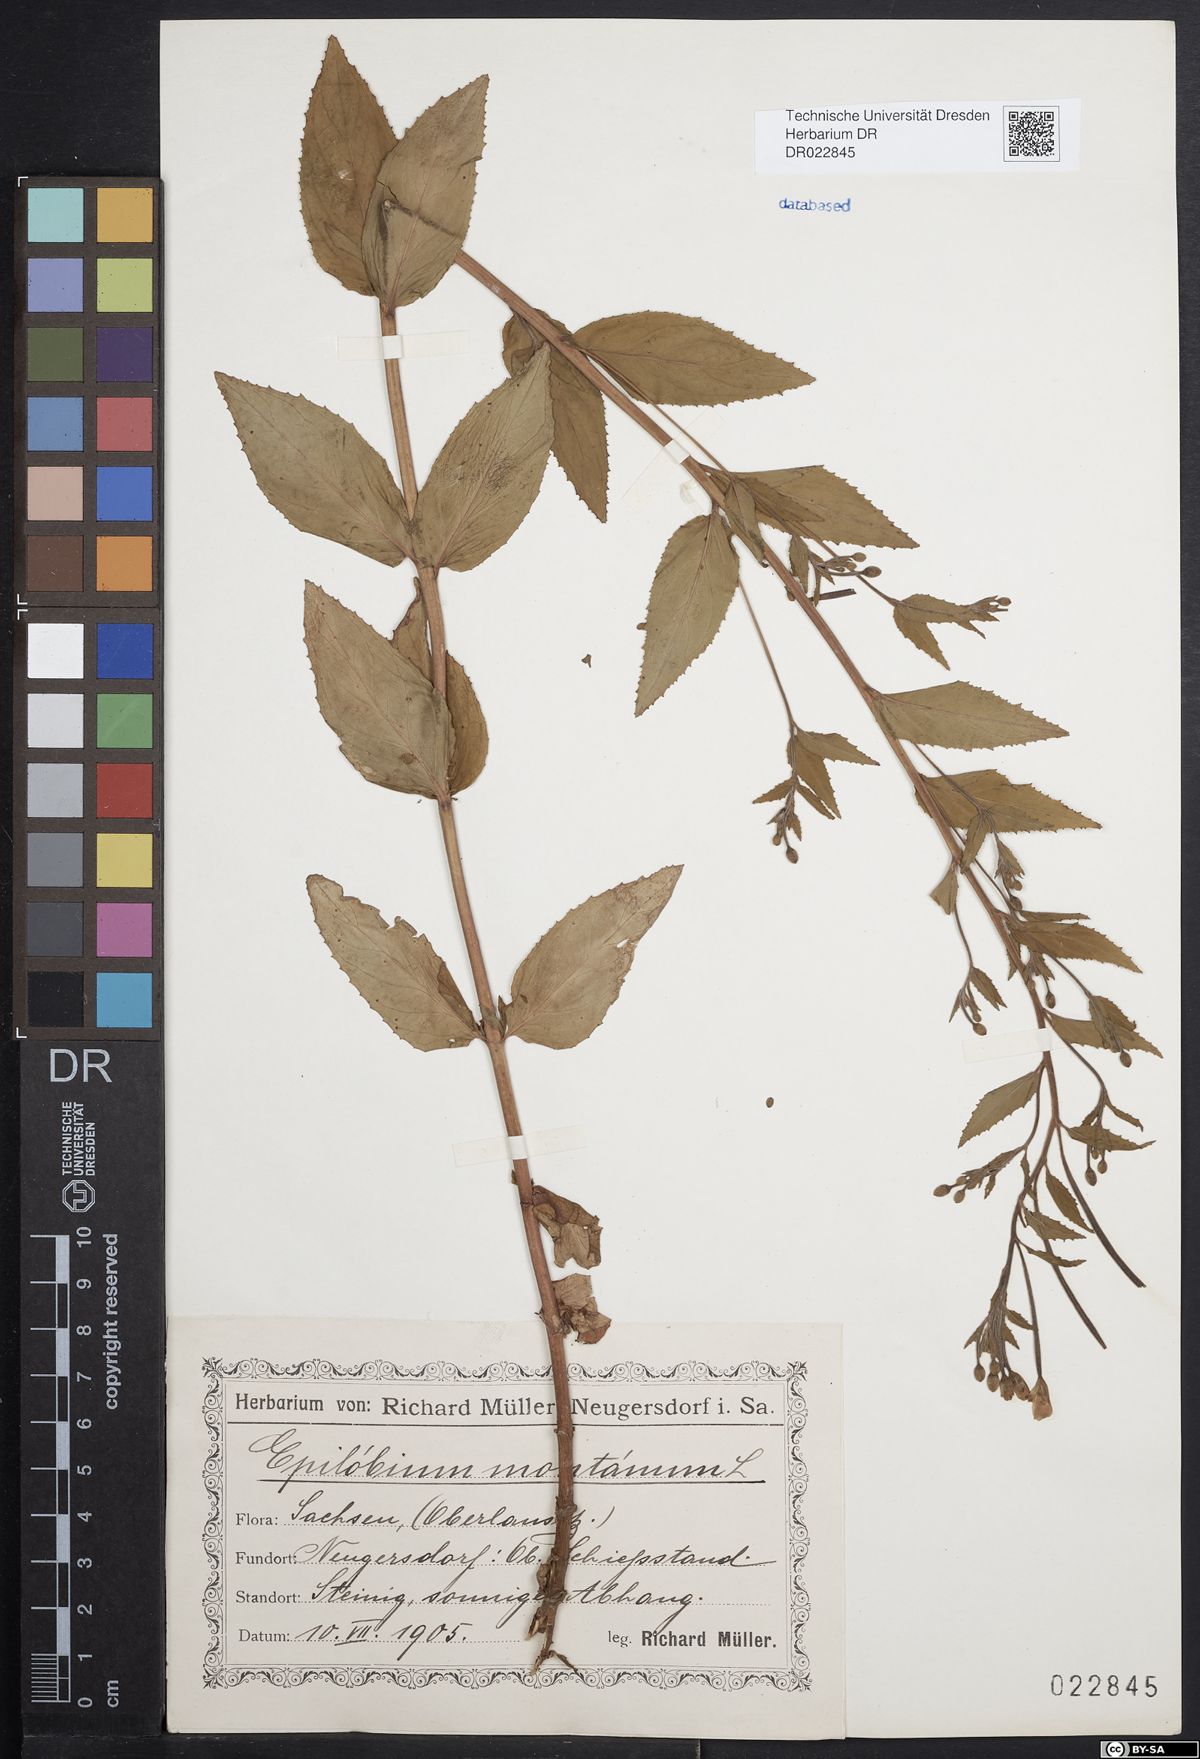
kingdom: Plantae
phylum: Tracheophyta
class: Magnoliopsida
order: Myrtales
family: Onagraceae
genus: Epilobium
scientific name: Epilobium montanum
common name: Broad-leaved willowherb
